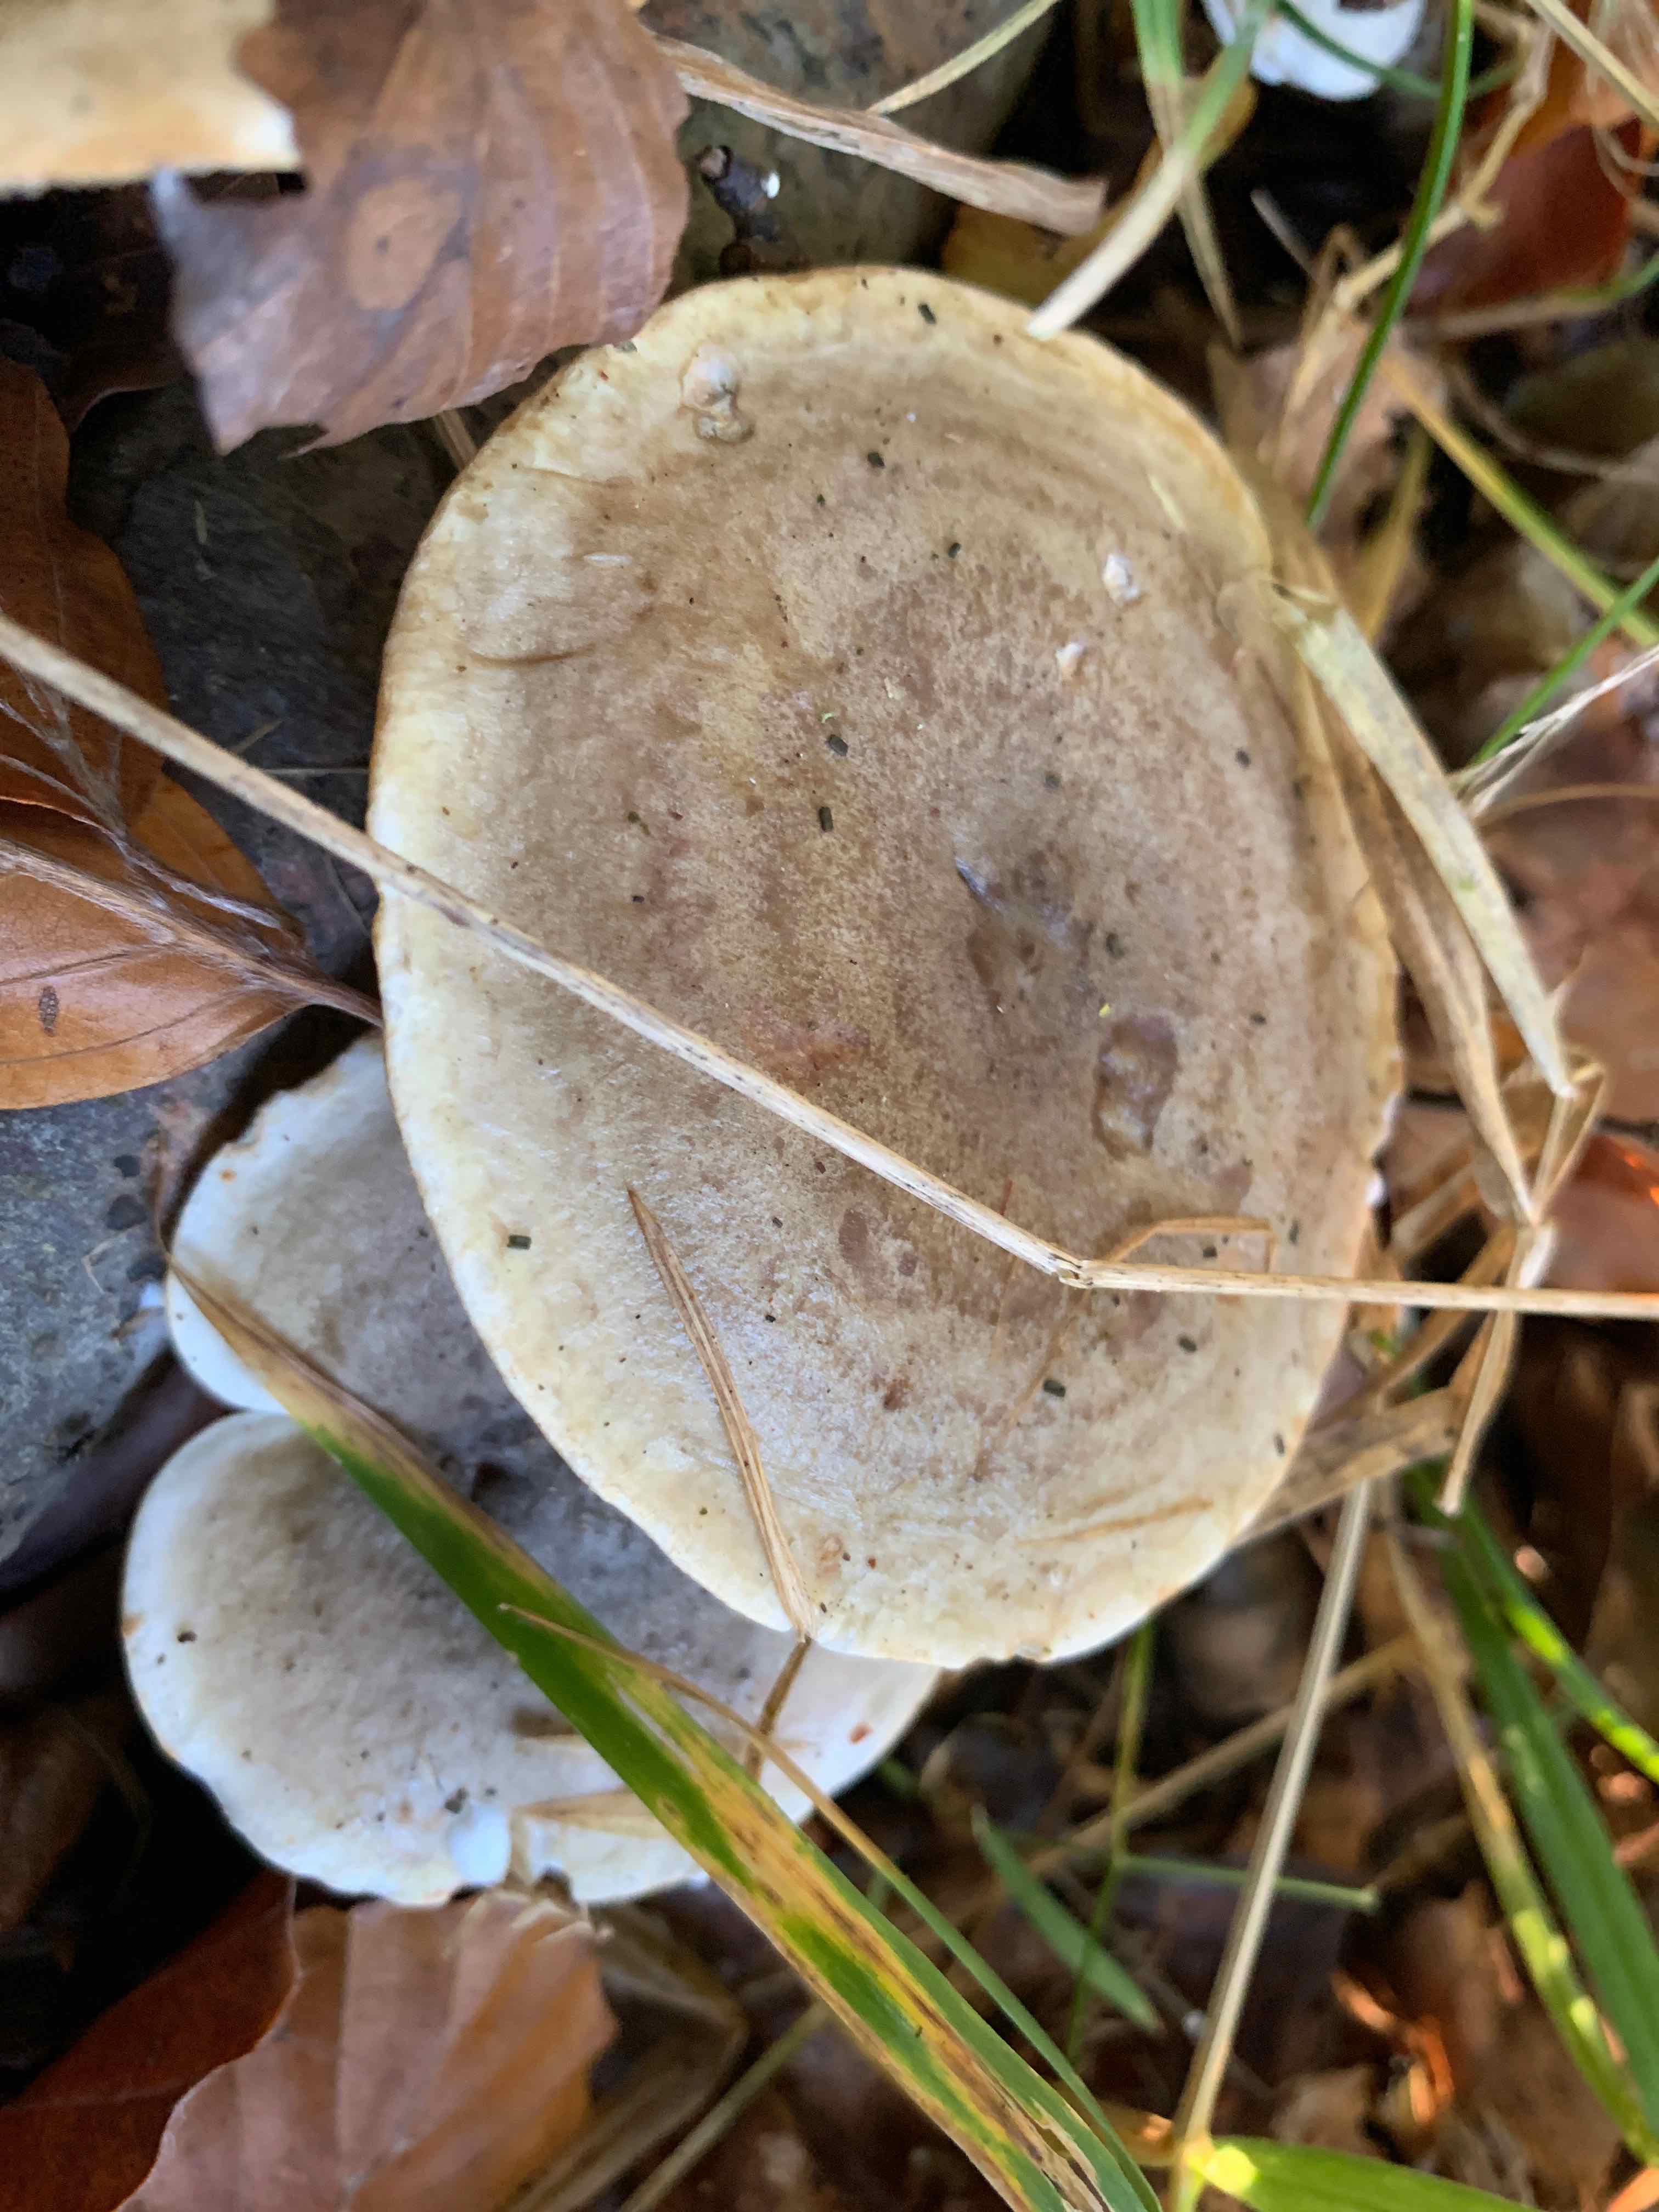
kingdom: Fungi
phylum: Basidiomycota
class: Agaricomycetes
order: Russulales
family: Russulaceae
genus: Lactarius
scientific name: Lactarius fluens
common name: lysrandet mælkehat
